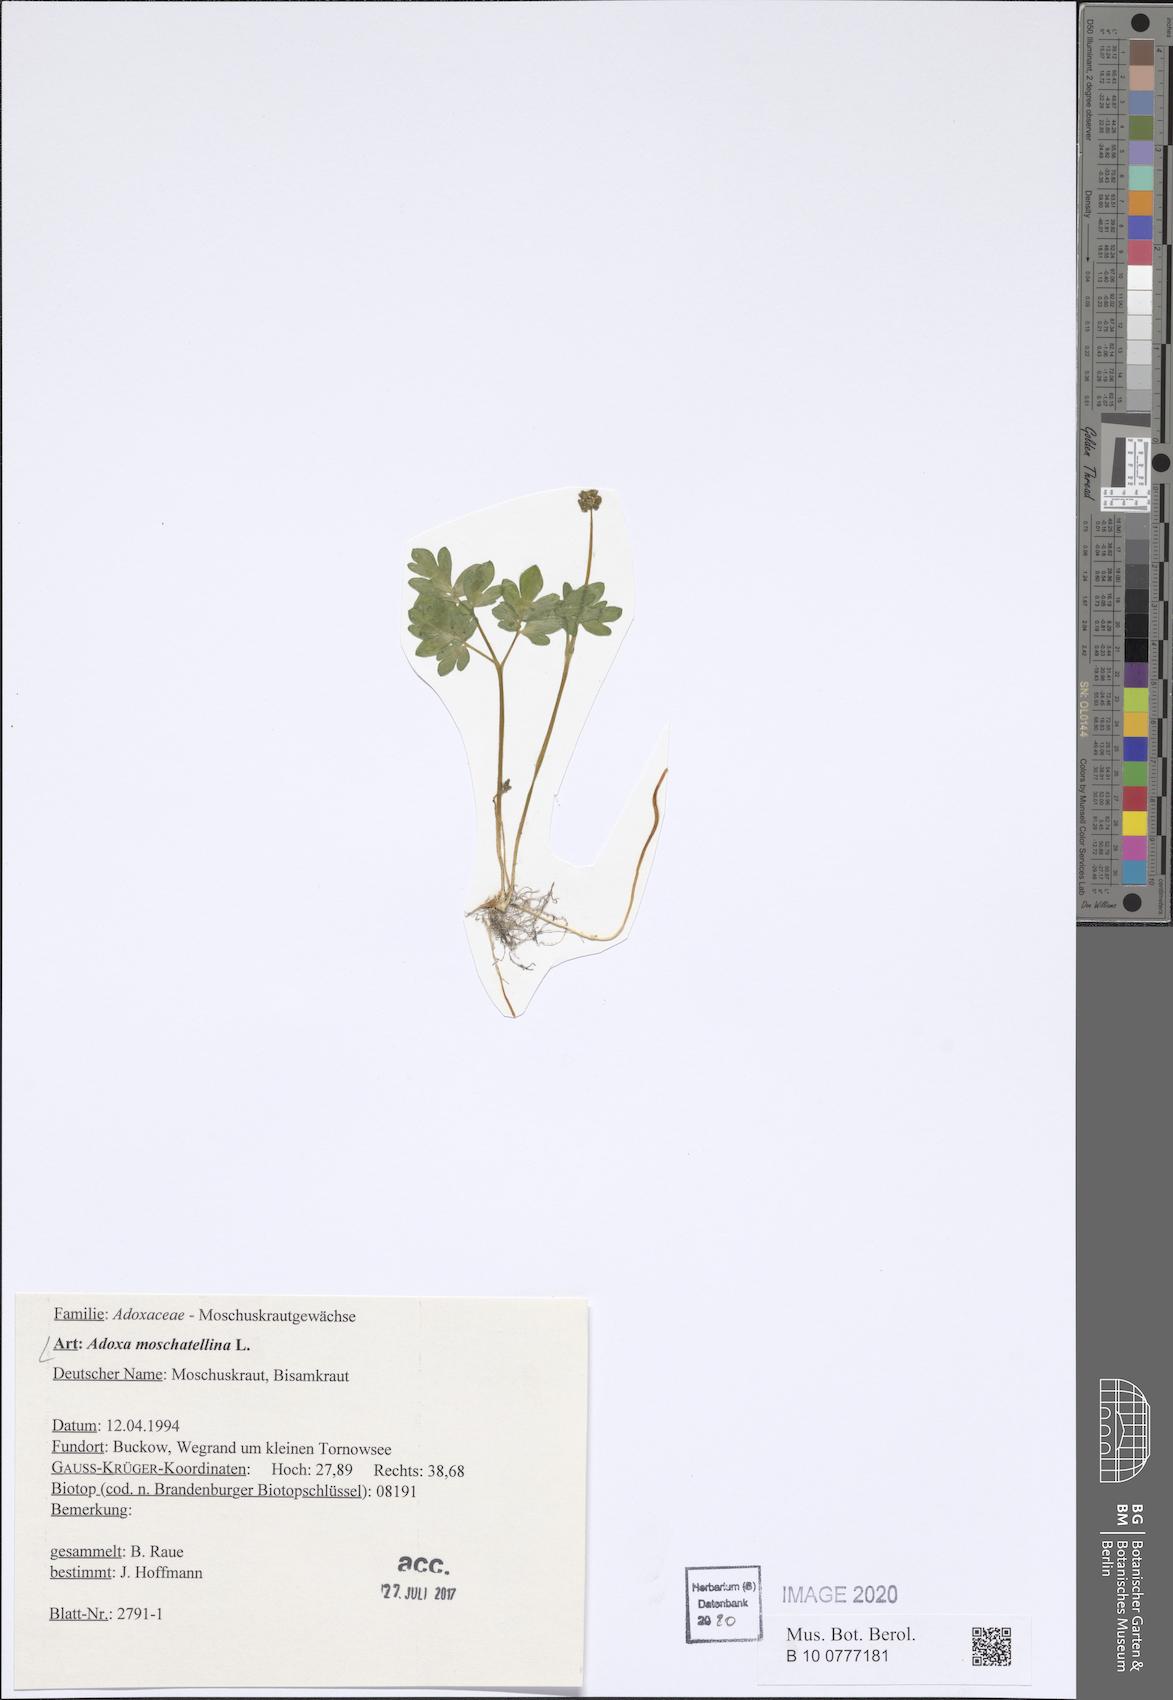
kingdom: Plantae
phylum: Tracheophyta
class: Magnoliopsida
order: Dipsacales
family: Viburnaceae
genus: Adoxa
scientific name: Adoxa moschatellina
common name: Moschatel
